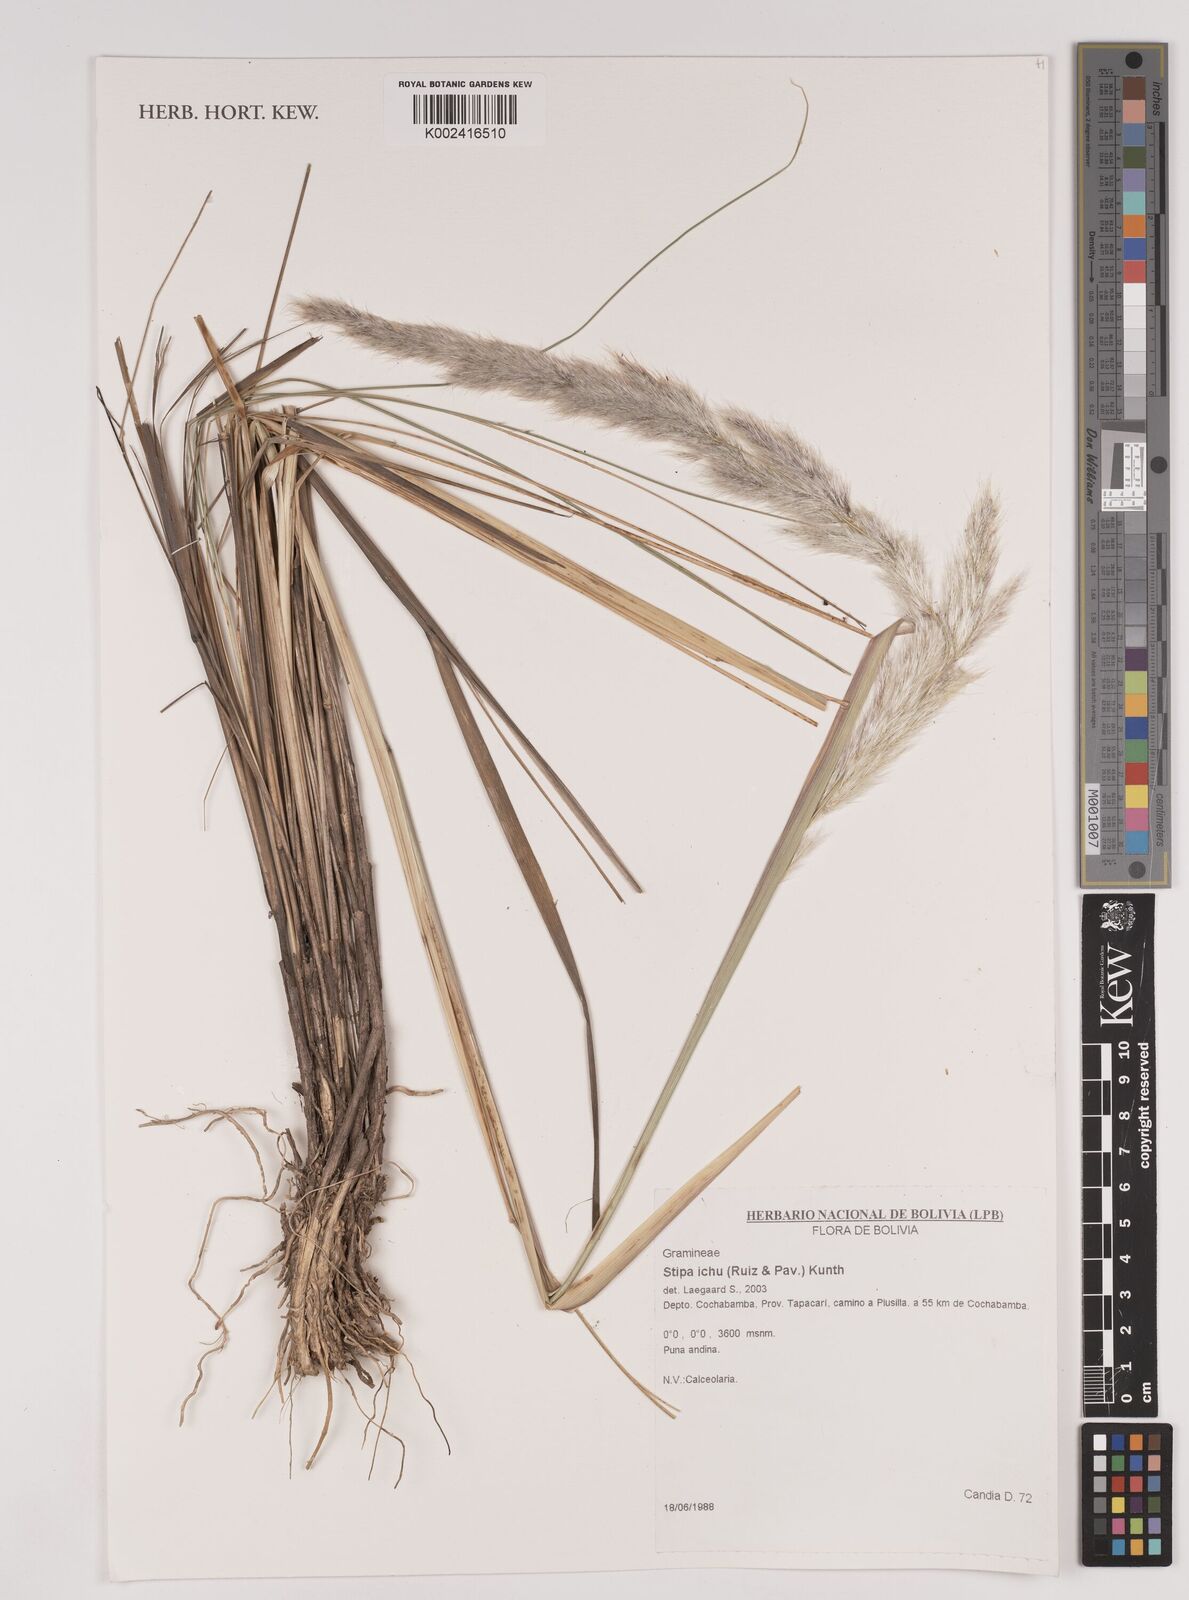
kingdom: Plantae
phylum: Tracheophyta
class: Liliopsida
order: Poales
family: Poaceae
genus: Jarava
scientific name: Jarava ichu
